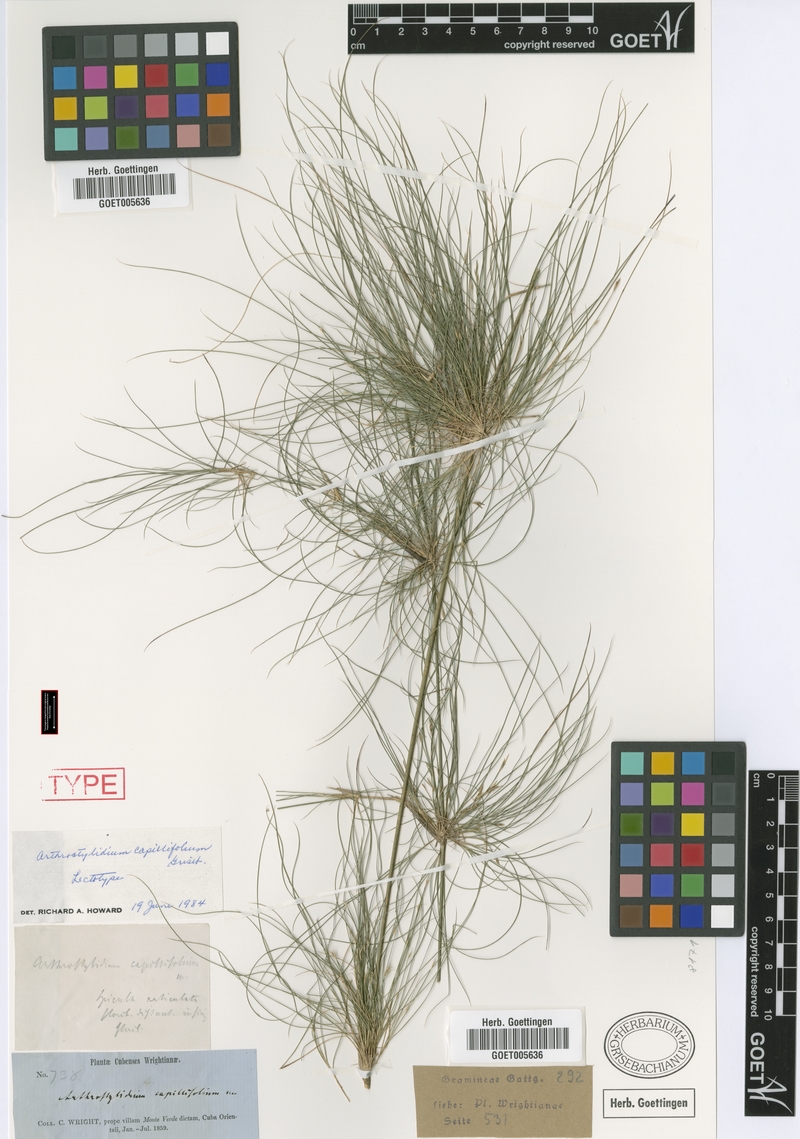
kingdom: Plantae
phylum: Tracheophyta
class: Liliopsida
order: Poales
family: Poaceae
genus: Tibisia
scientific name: Tibisia farcta
